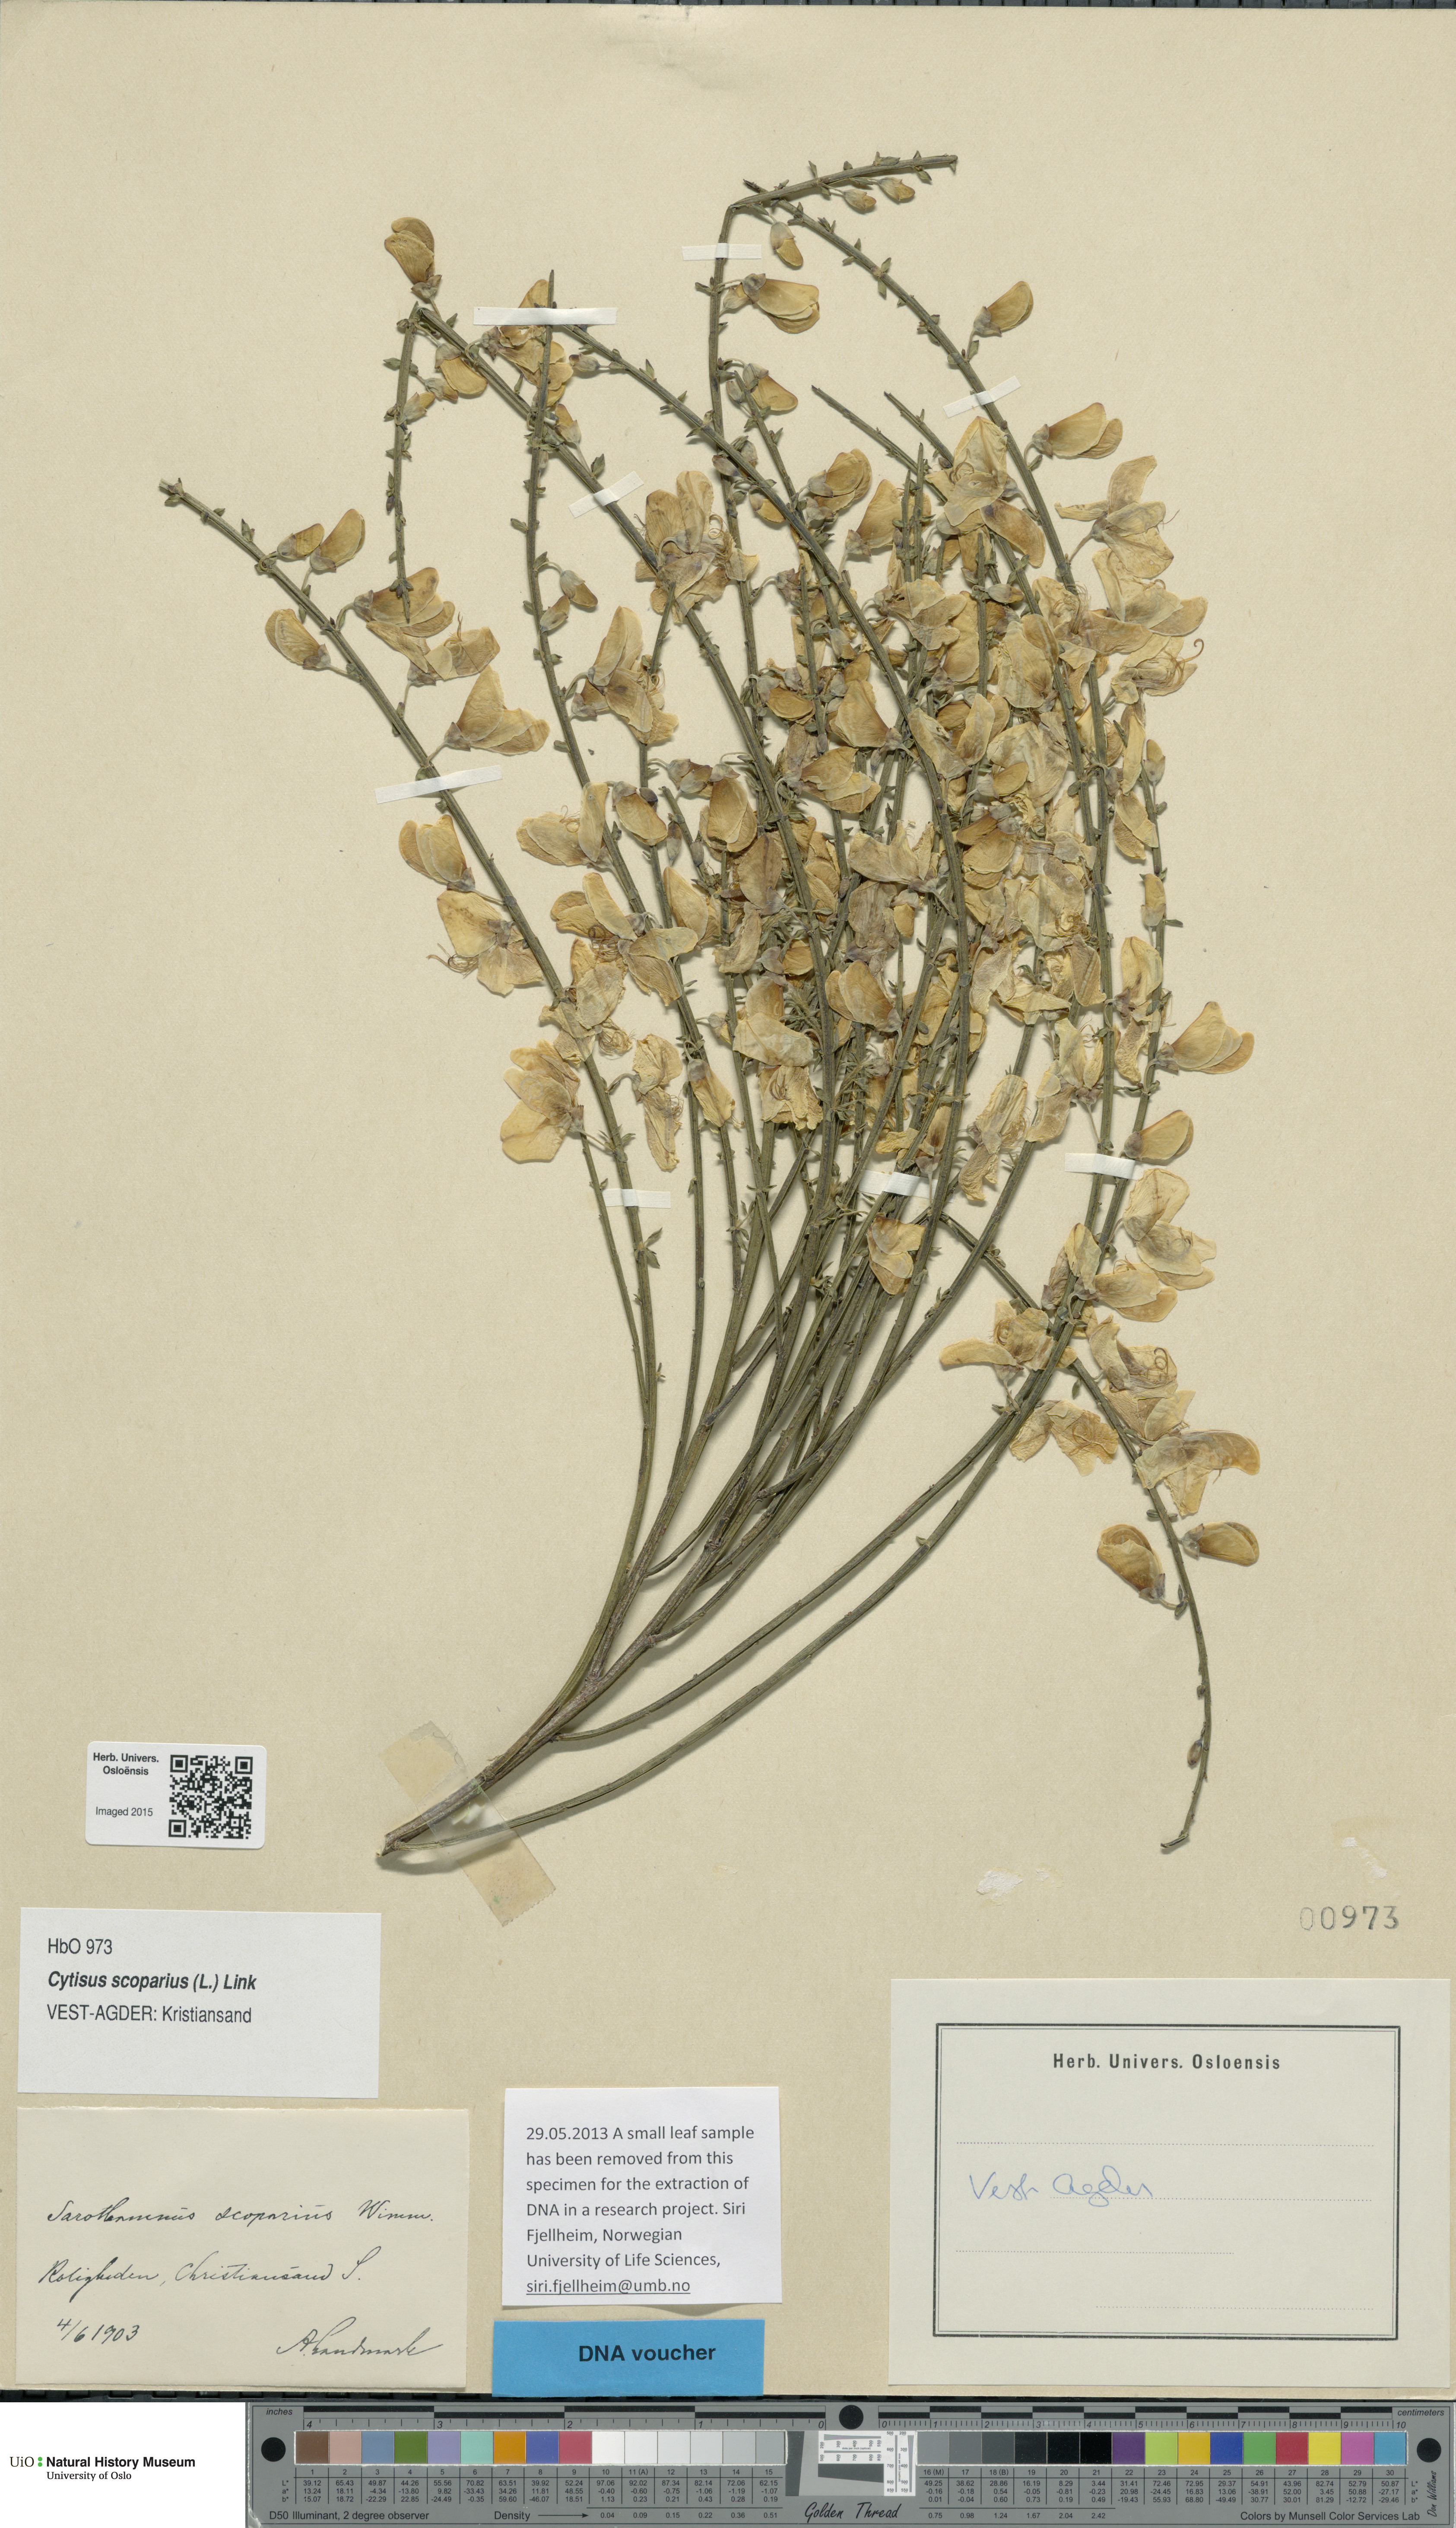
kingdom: Plantae
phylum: Tracheophyta
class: Magnoliopsida
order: Fabales
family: Fabaceae
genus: Cytisus
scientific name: Cytisus scoparius
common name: Scotch broom
